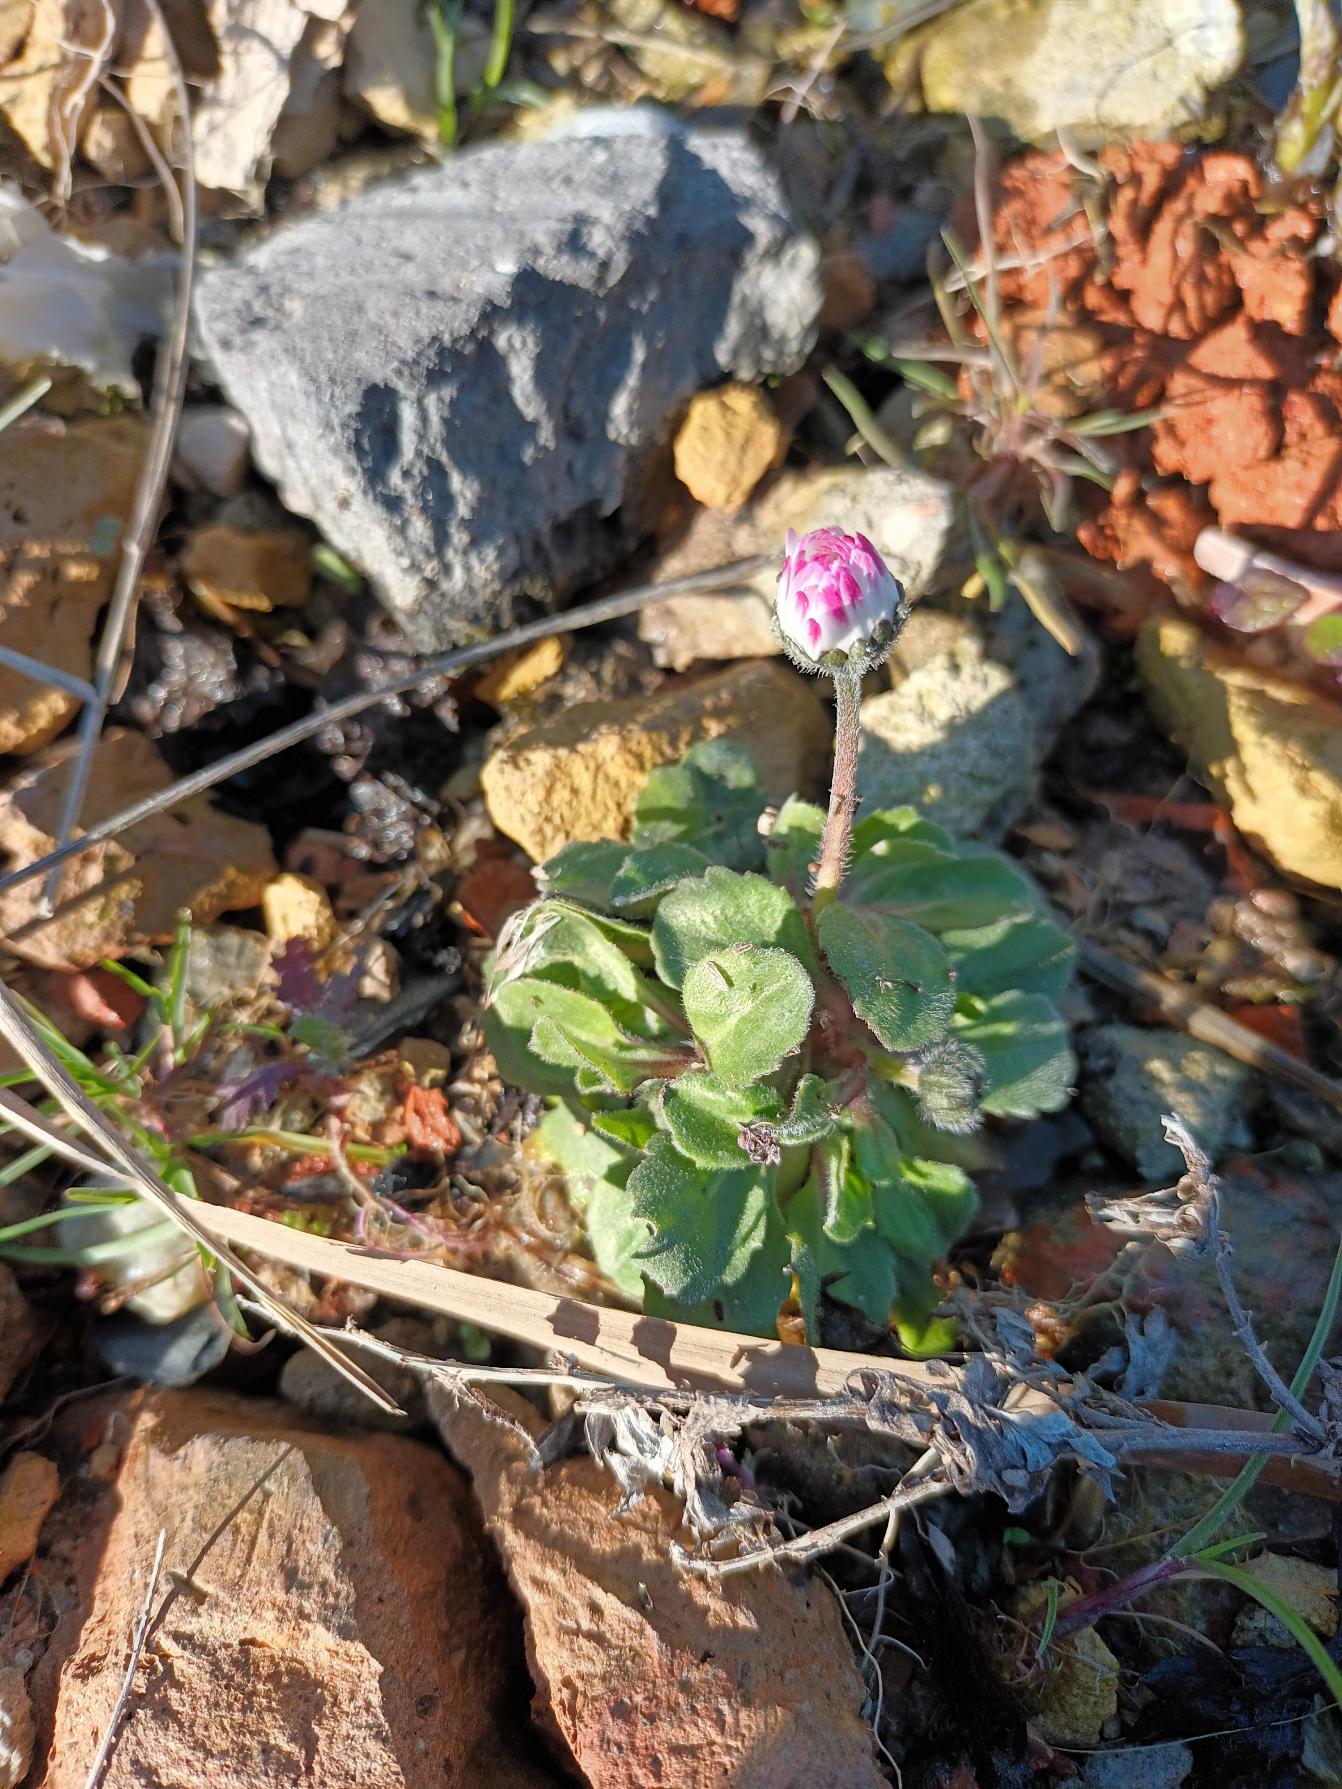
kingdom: Plantae
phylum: Tracheophyta
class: Magnoliopsida
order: Asterales
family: Asteraceae
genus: Bellis
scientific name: Bellis perennis
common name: Tusindfryd
